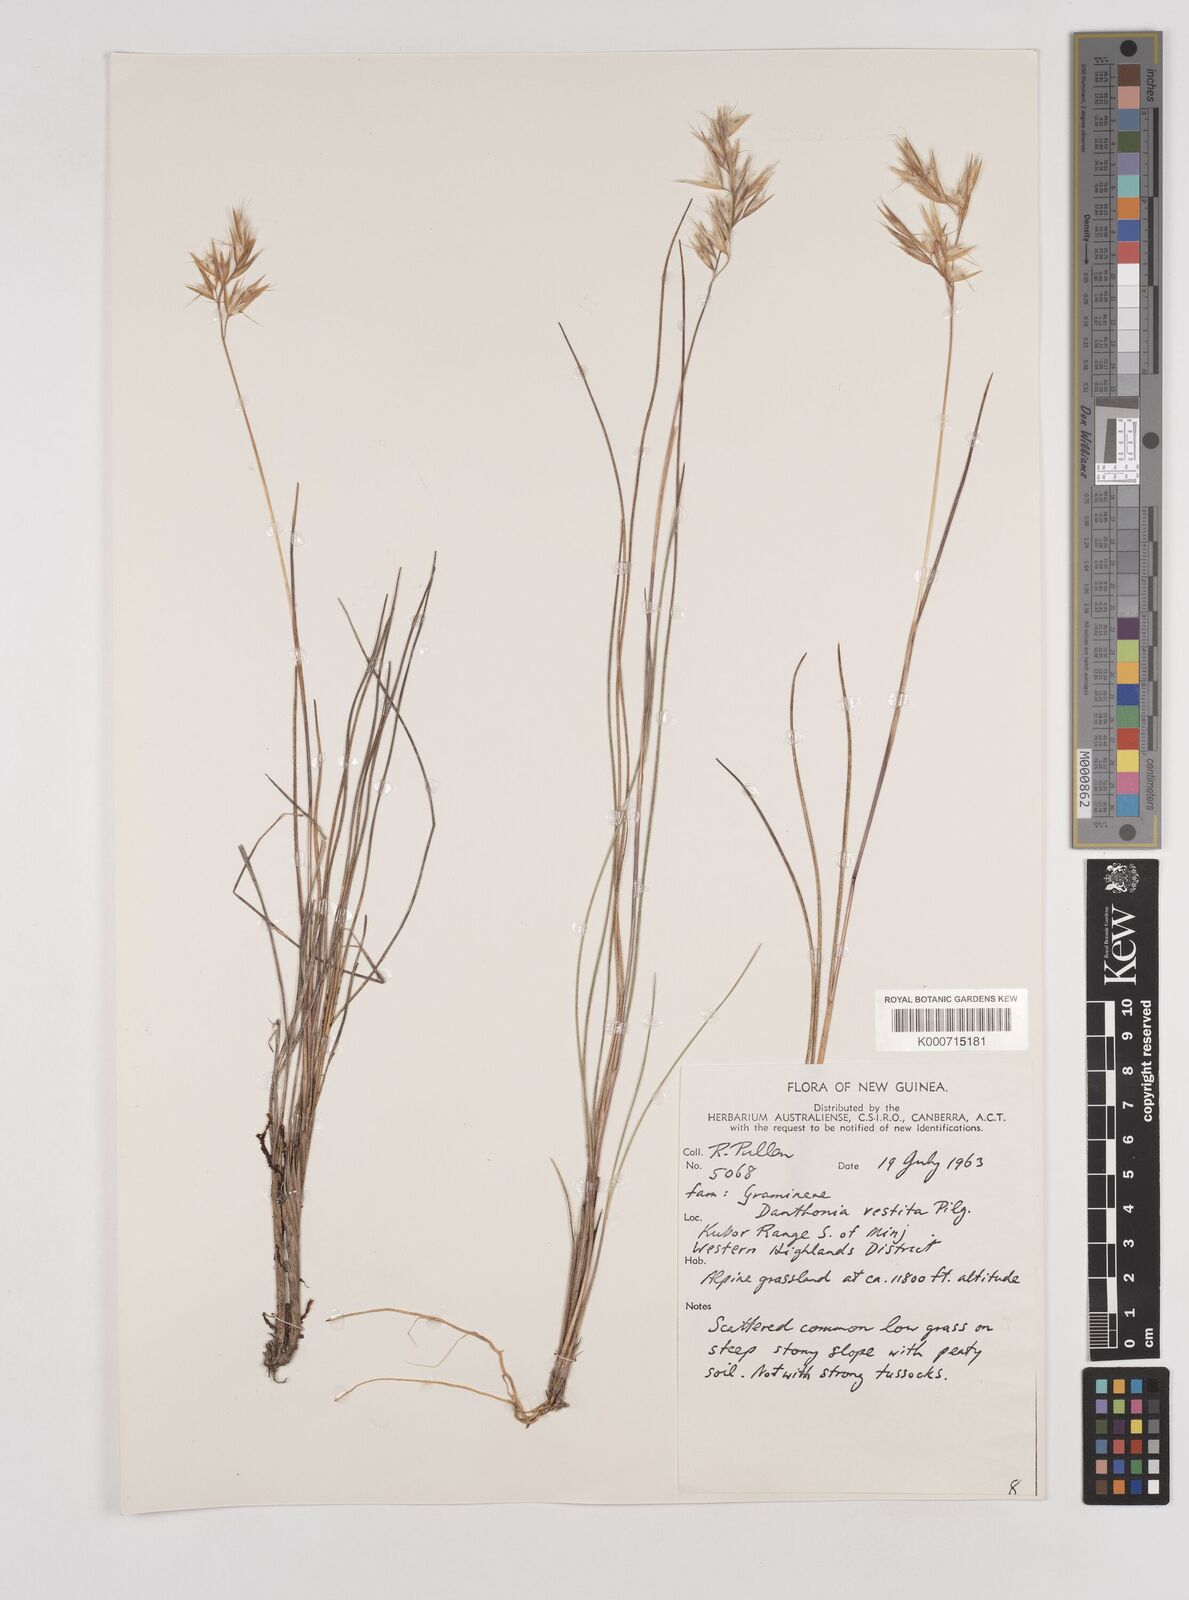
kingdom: Plantae
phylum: Tracheophyta
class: Liliopsida
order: Poales
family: Poaceae
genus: Rytidosperma
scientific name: Rytidosperma vestitum
